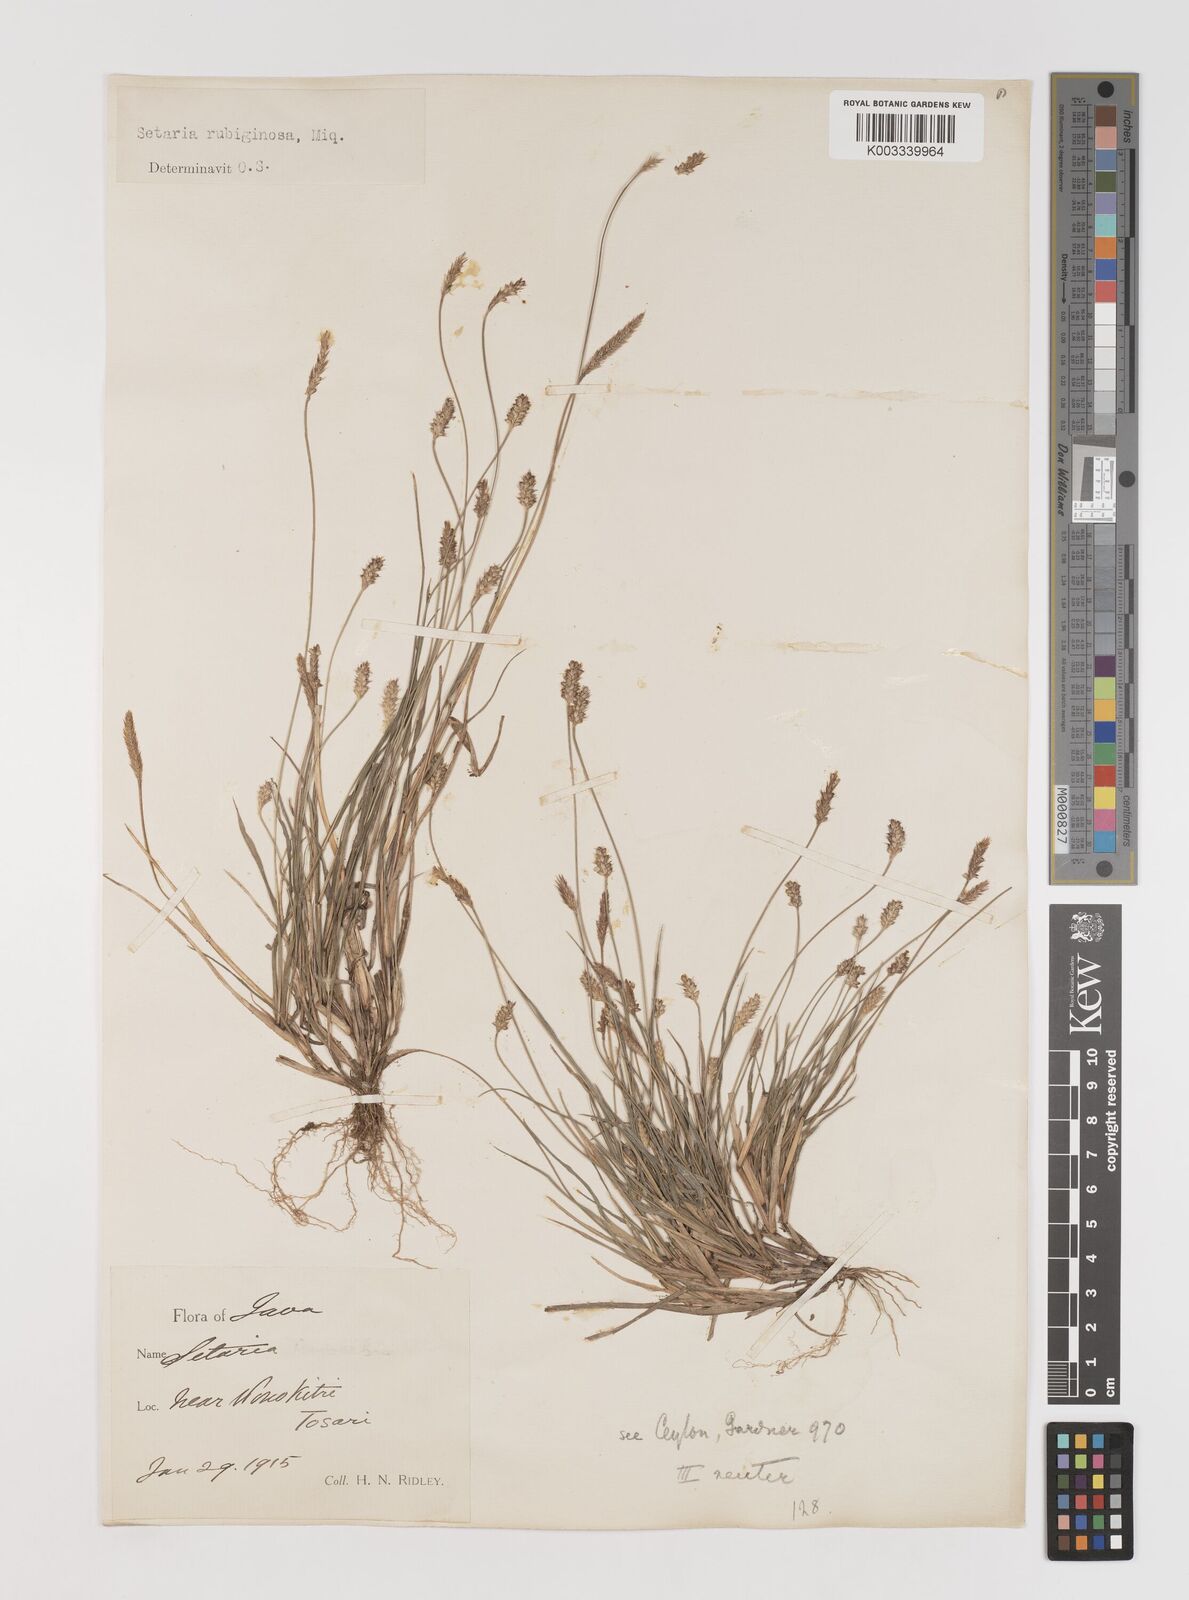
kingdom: Plantae
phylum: Tracheophyta
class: Liliopsida
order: Poales
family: Poaceae
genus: Setaria
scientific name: Setaria parviflora
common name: Knotroot bristle-grass
